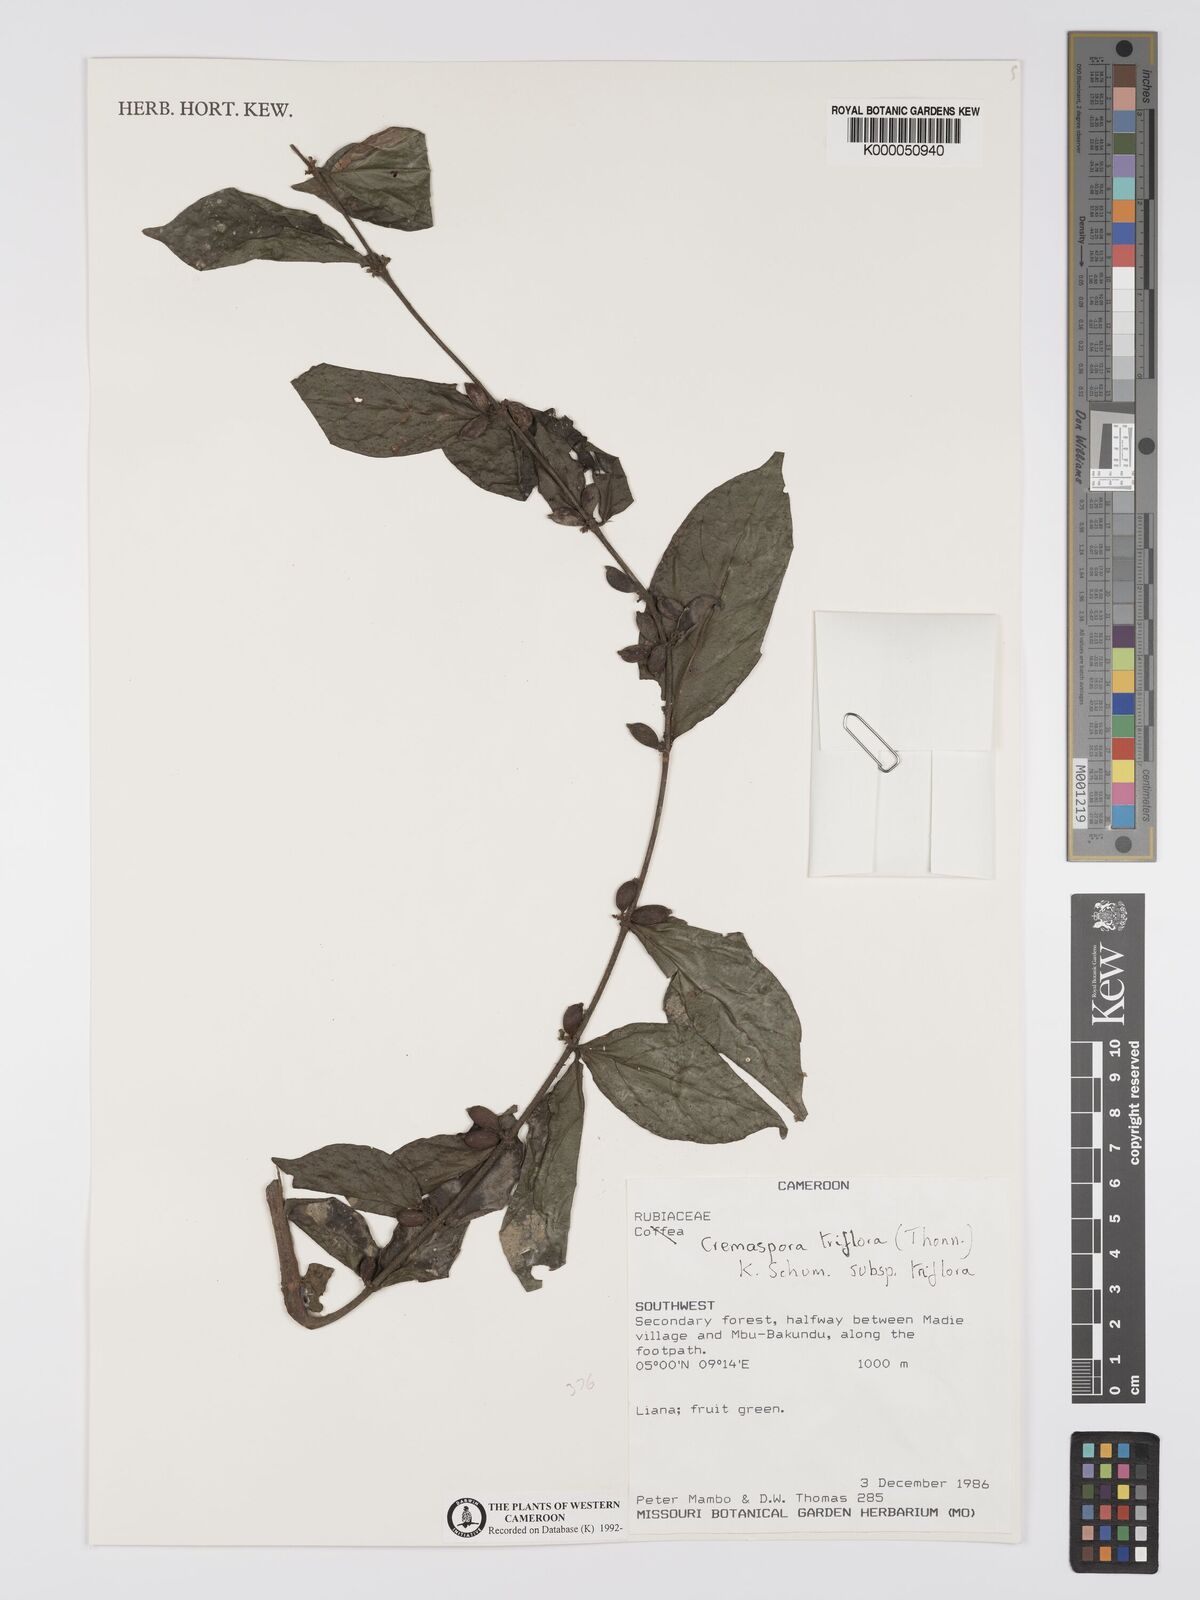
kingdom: Plantae
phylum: Tracheophyta
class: Magnoliopsida
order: Gentianales
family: Rubiaceae
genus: Cremaspora
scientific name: Cremaspora triflora
